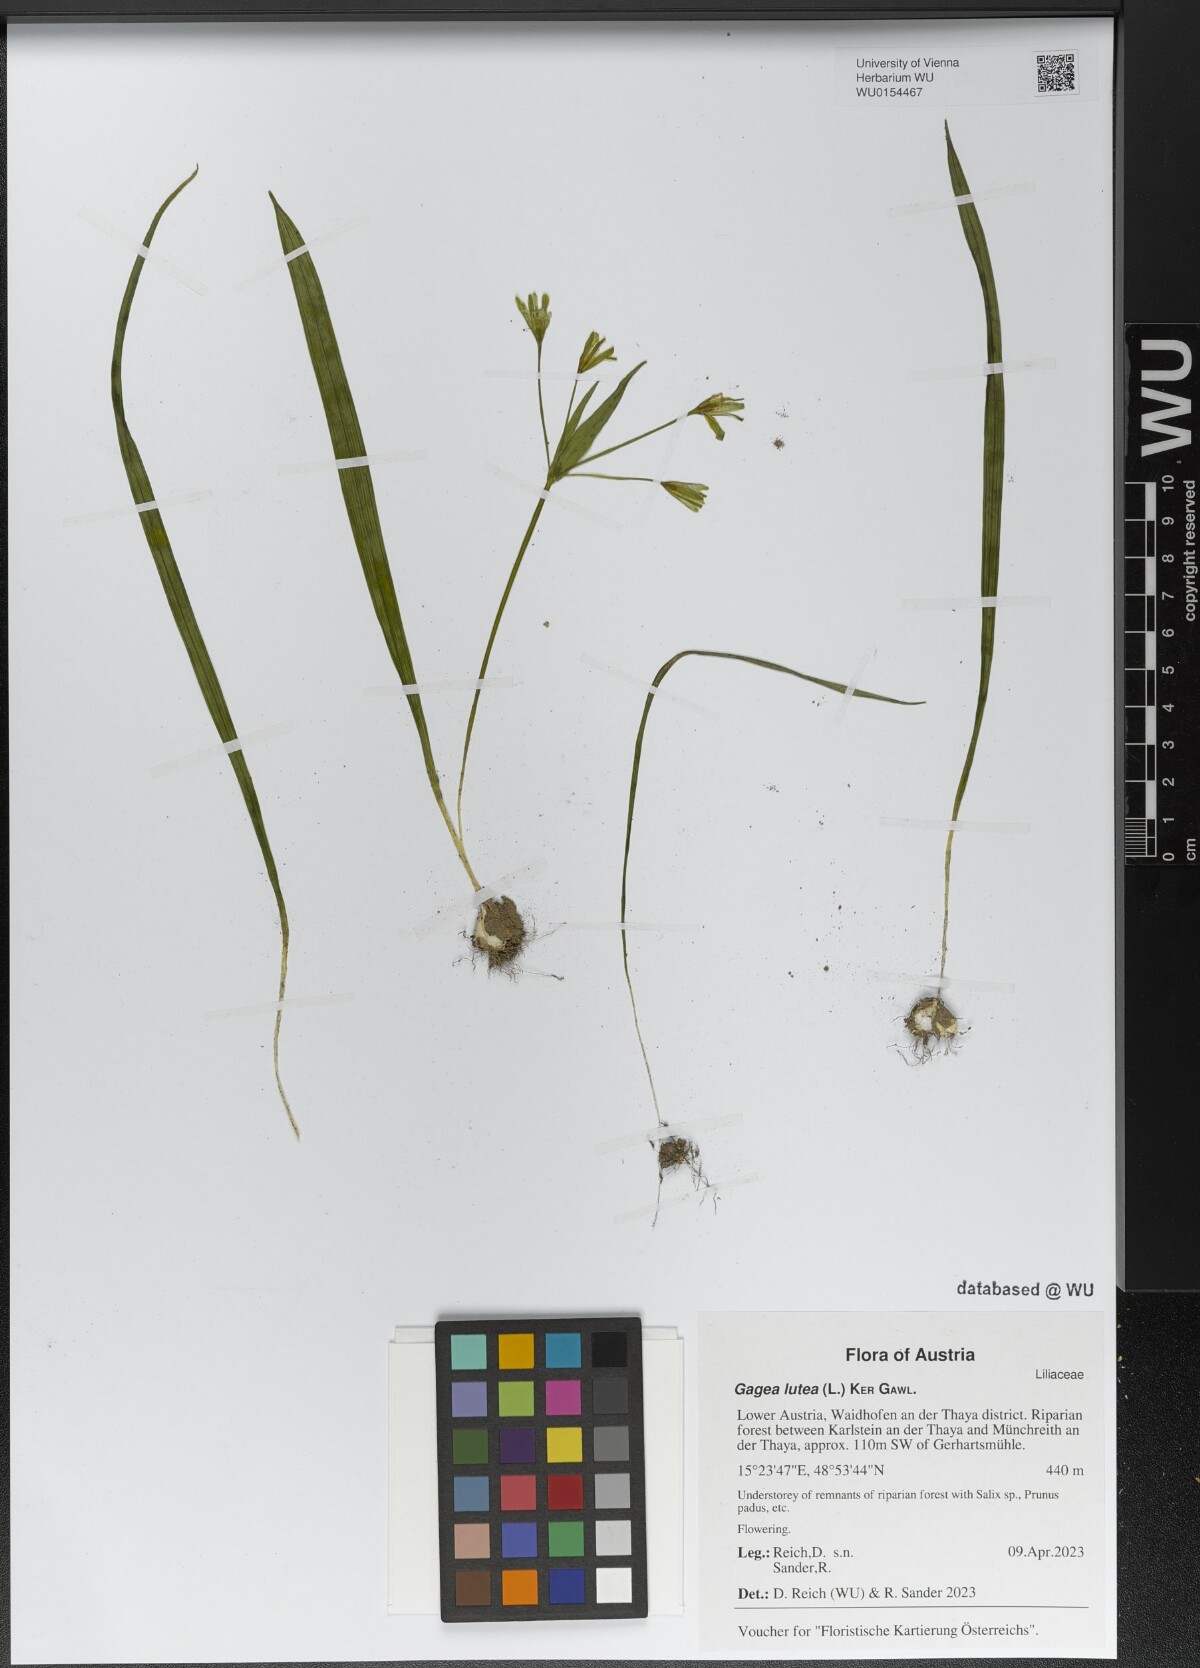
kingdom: Plantae
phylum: Tracheophyta
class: Liliopsida
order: Liliales
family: Liliaceae
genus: Gagea
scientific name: Gagea lutea
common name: Yellow star-of-bethlehem
